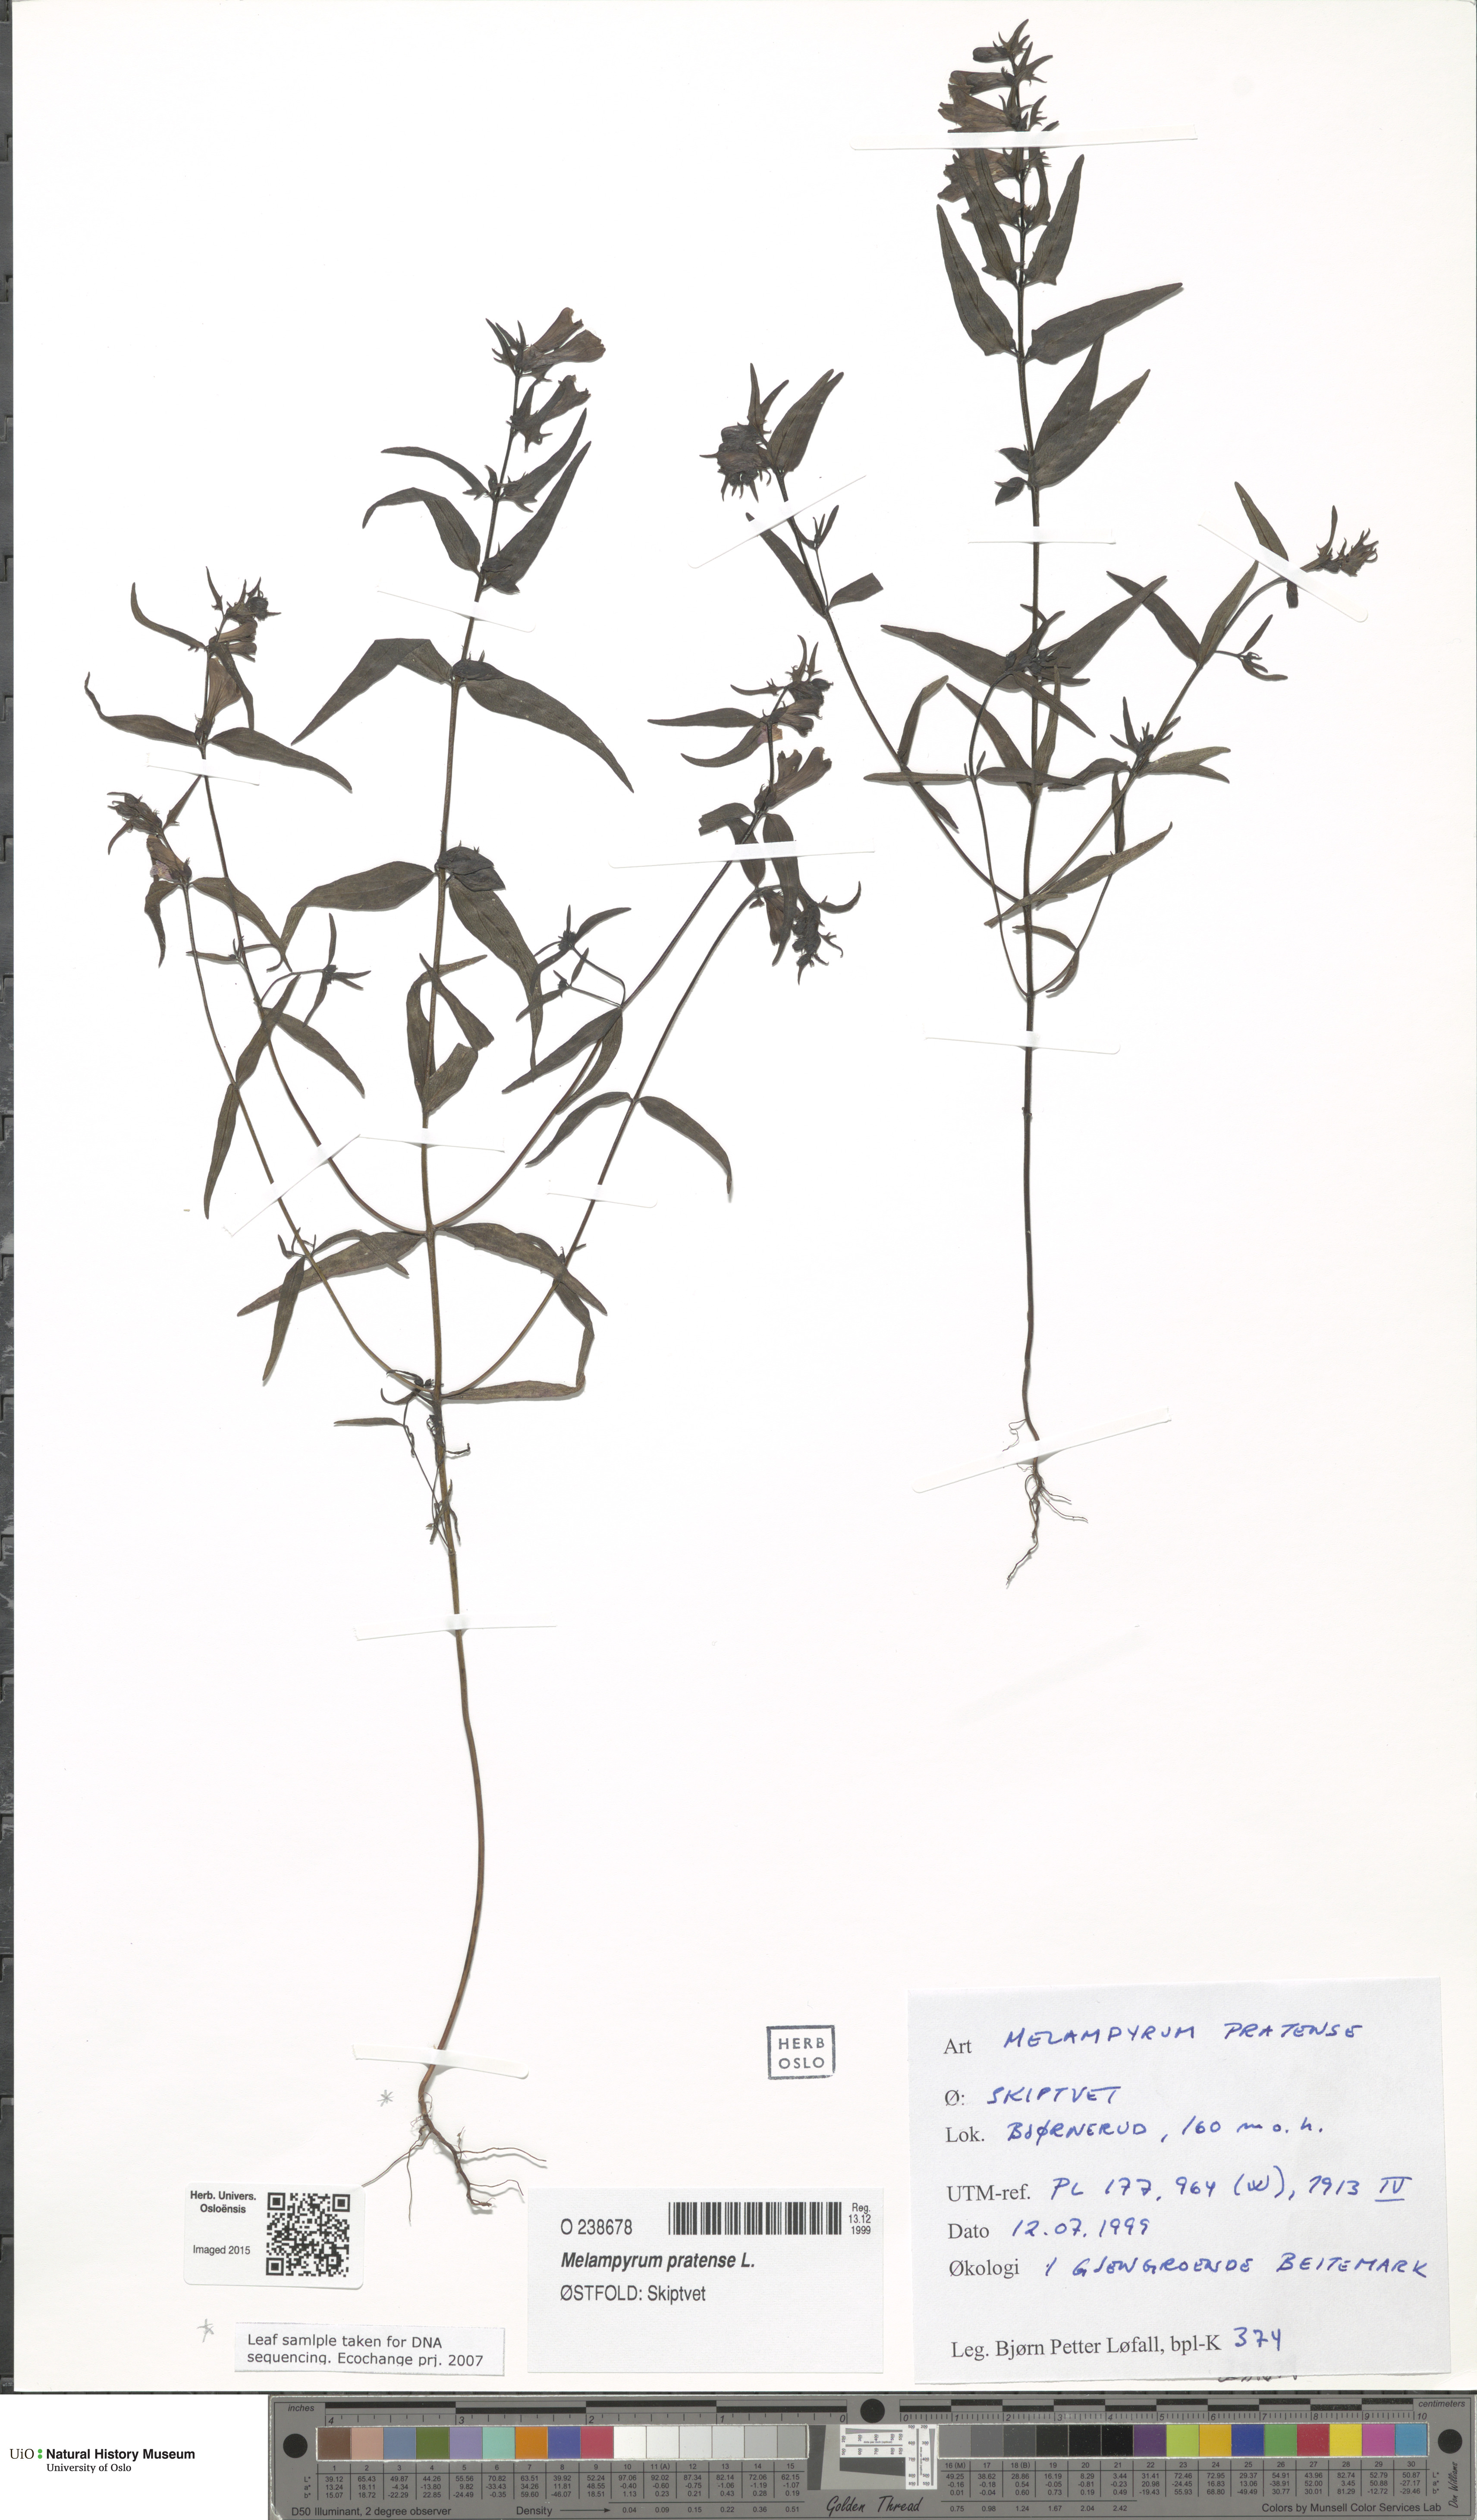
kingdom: Plantae
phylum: Tracheophyta
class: Magnoliopsida
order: Lamiales
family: Orobanchaceae
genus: Melampyrum
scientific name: Melampyrum pratense
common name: Common cow-wheat
